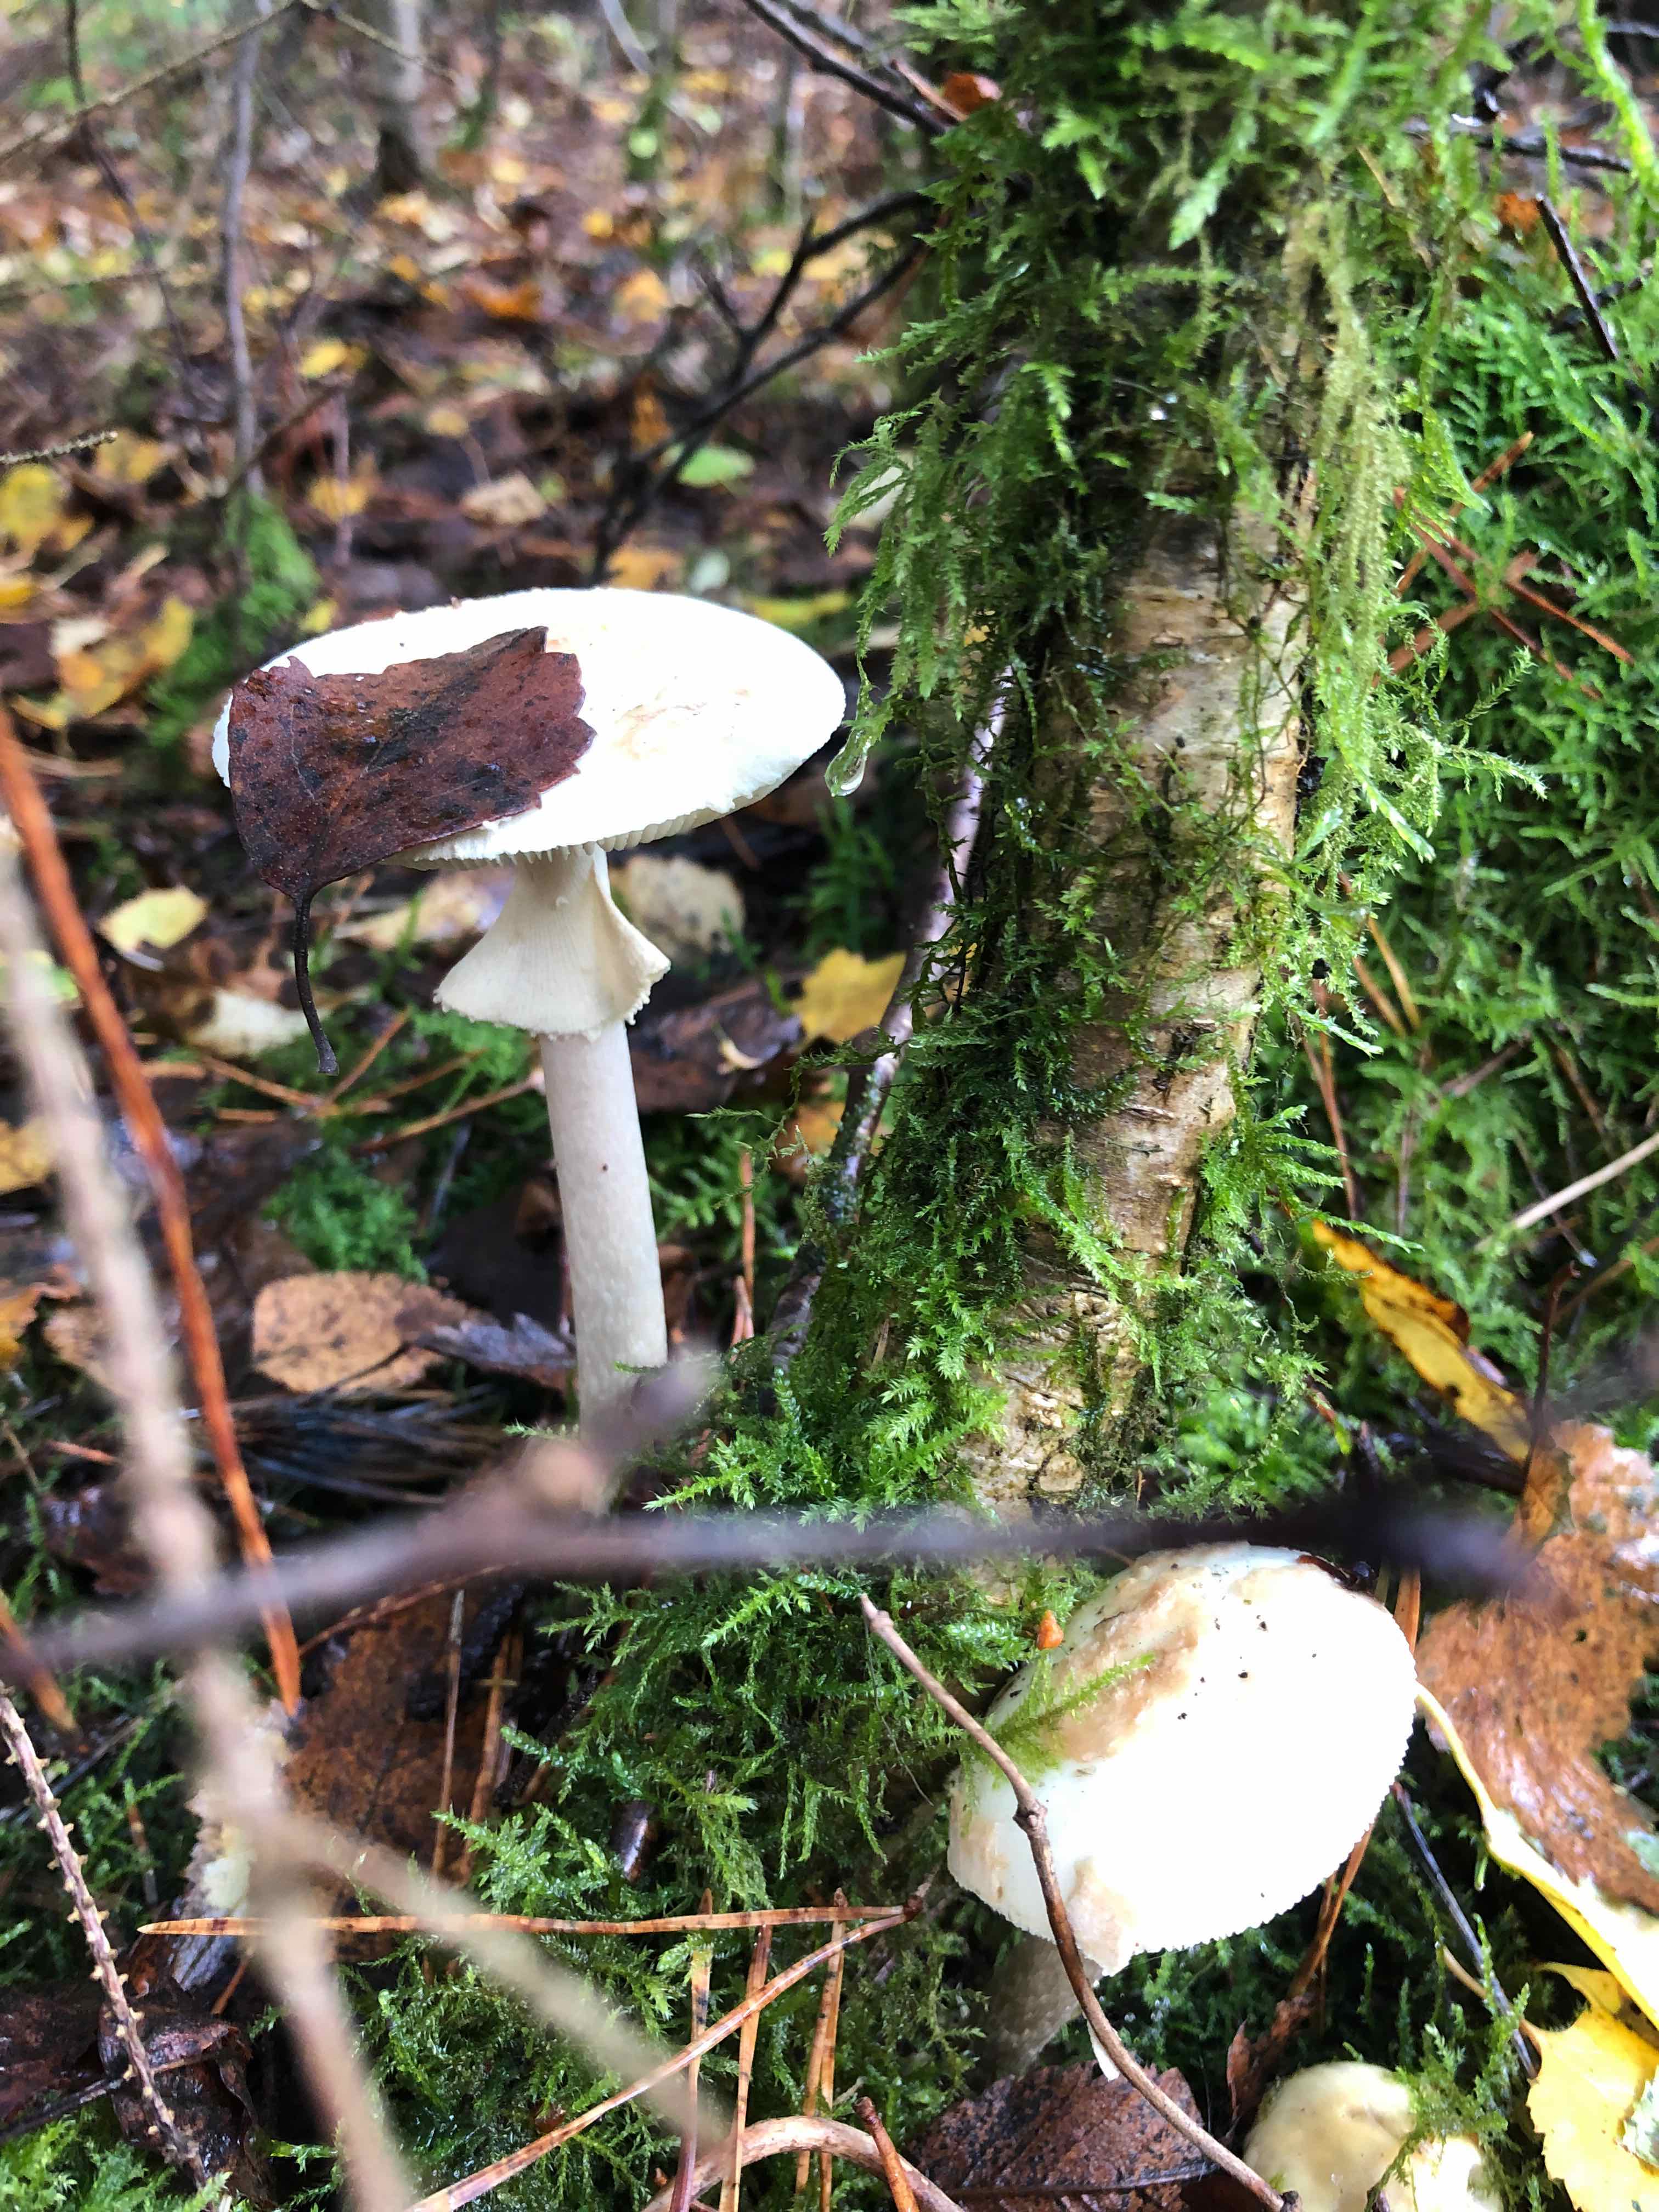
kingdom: Fungi
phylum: Basidiomycota
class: Agaricomycetes
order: Agaricales
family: Amanitaceae
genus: Amanita
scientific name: Amanita citrina
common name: kugleknoldet fluesvamp
